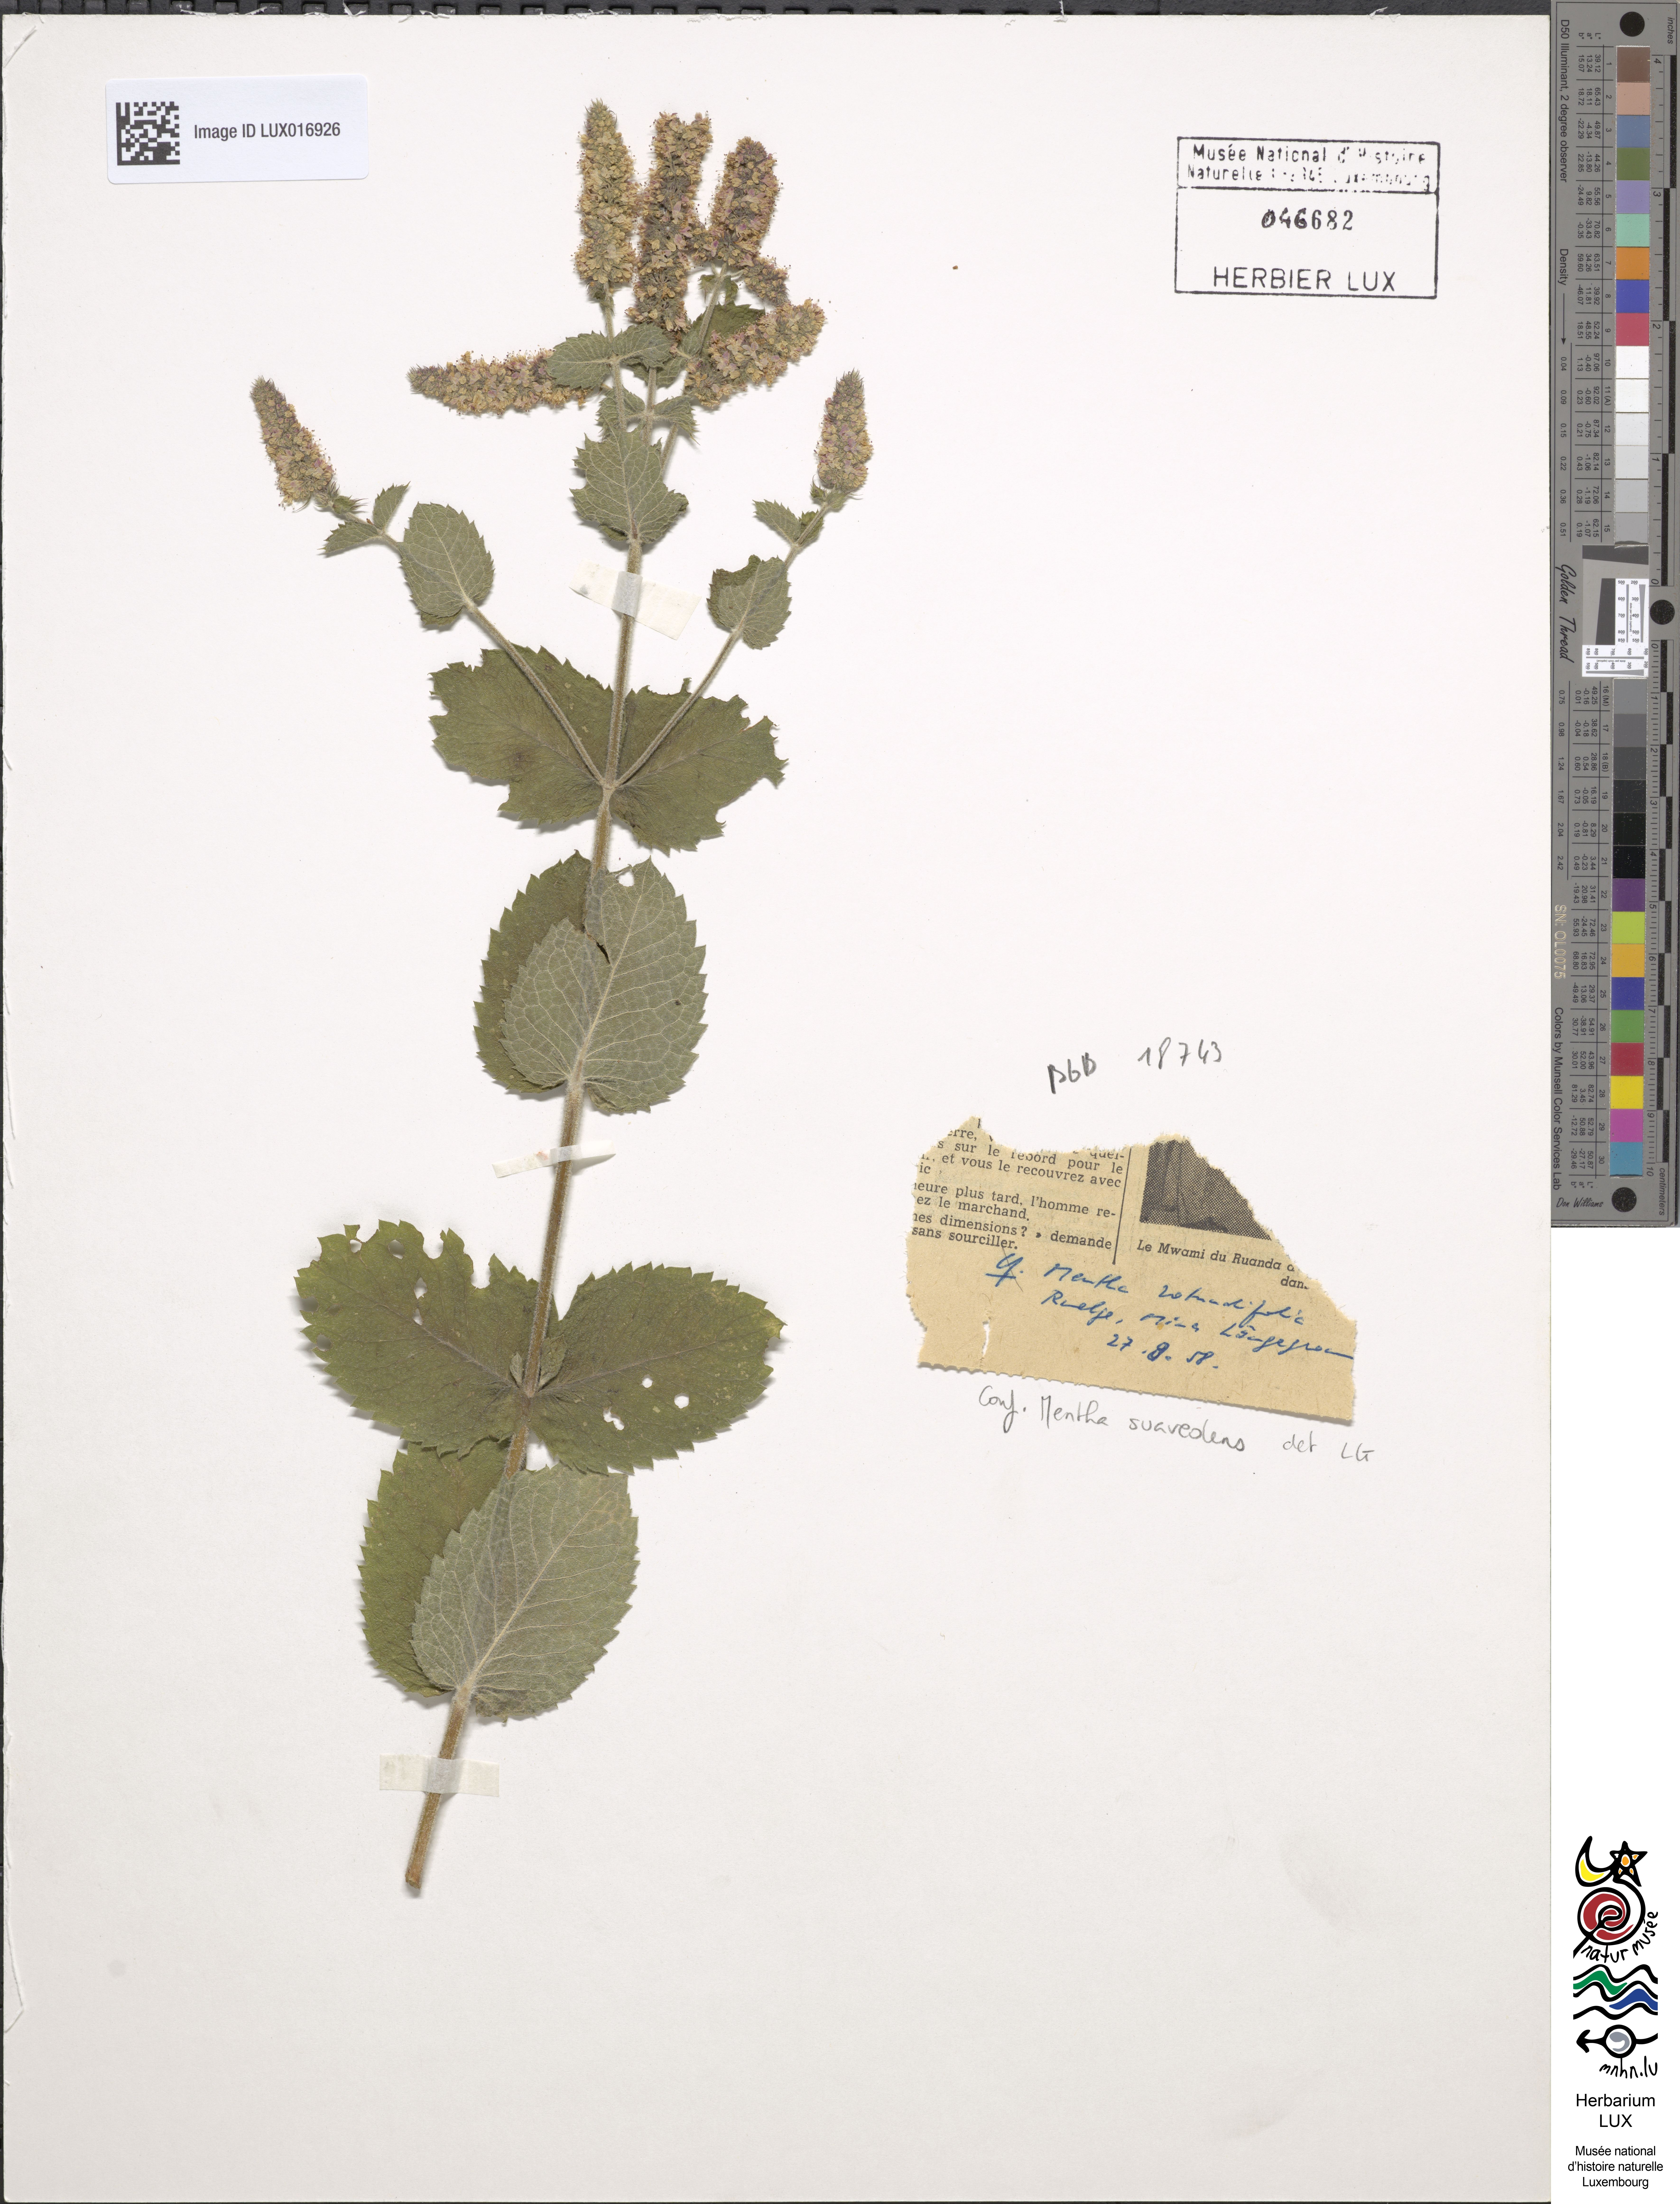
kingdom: Plantae
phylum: Tracheophyta
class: Magnoliopsida
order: Lamiales
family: Lamiaceae
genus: Mentha
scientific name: Mentha suaveolens
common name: Apple mint
